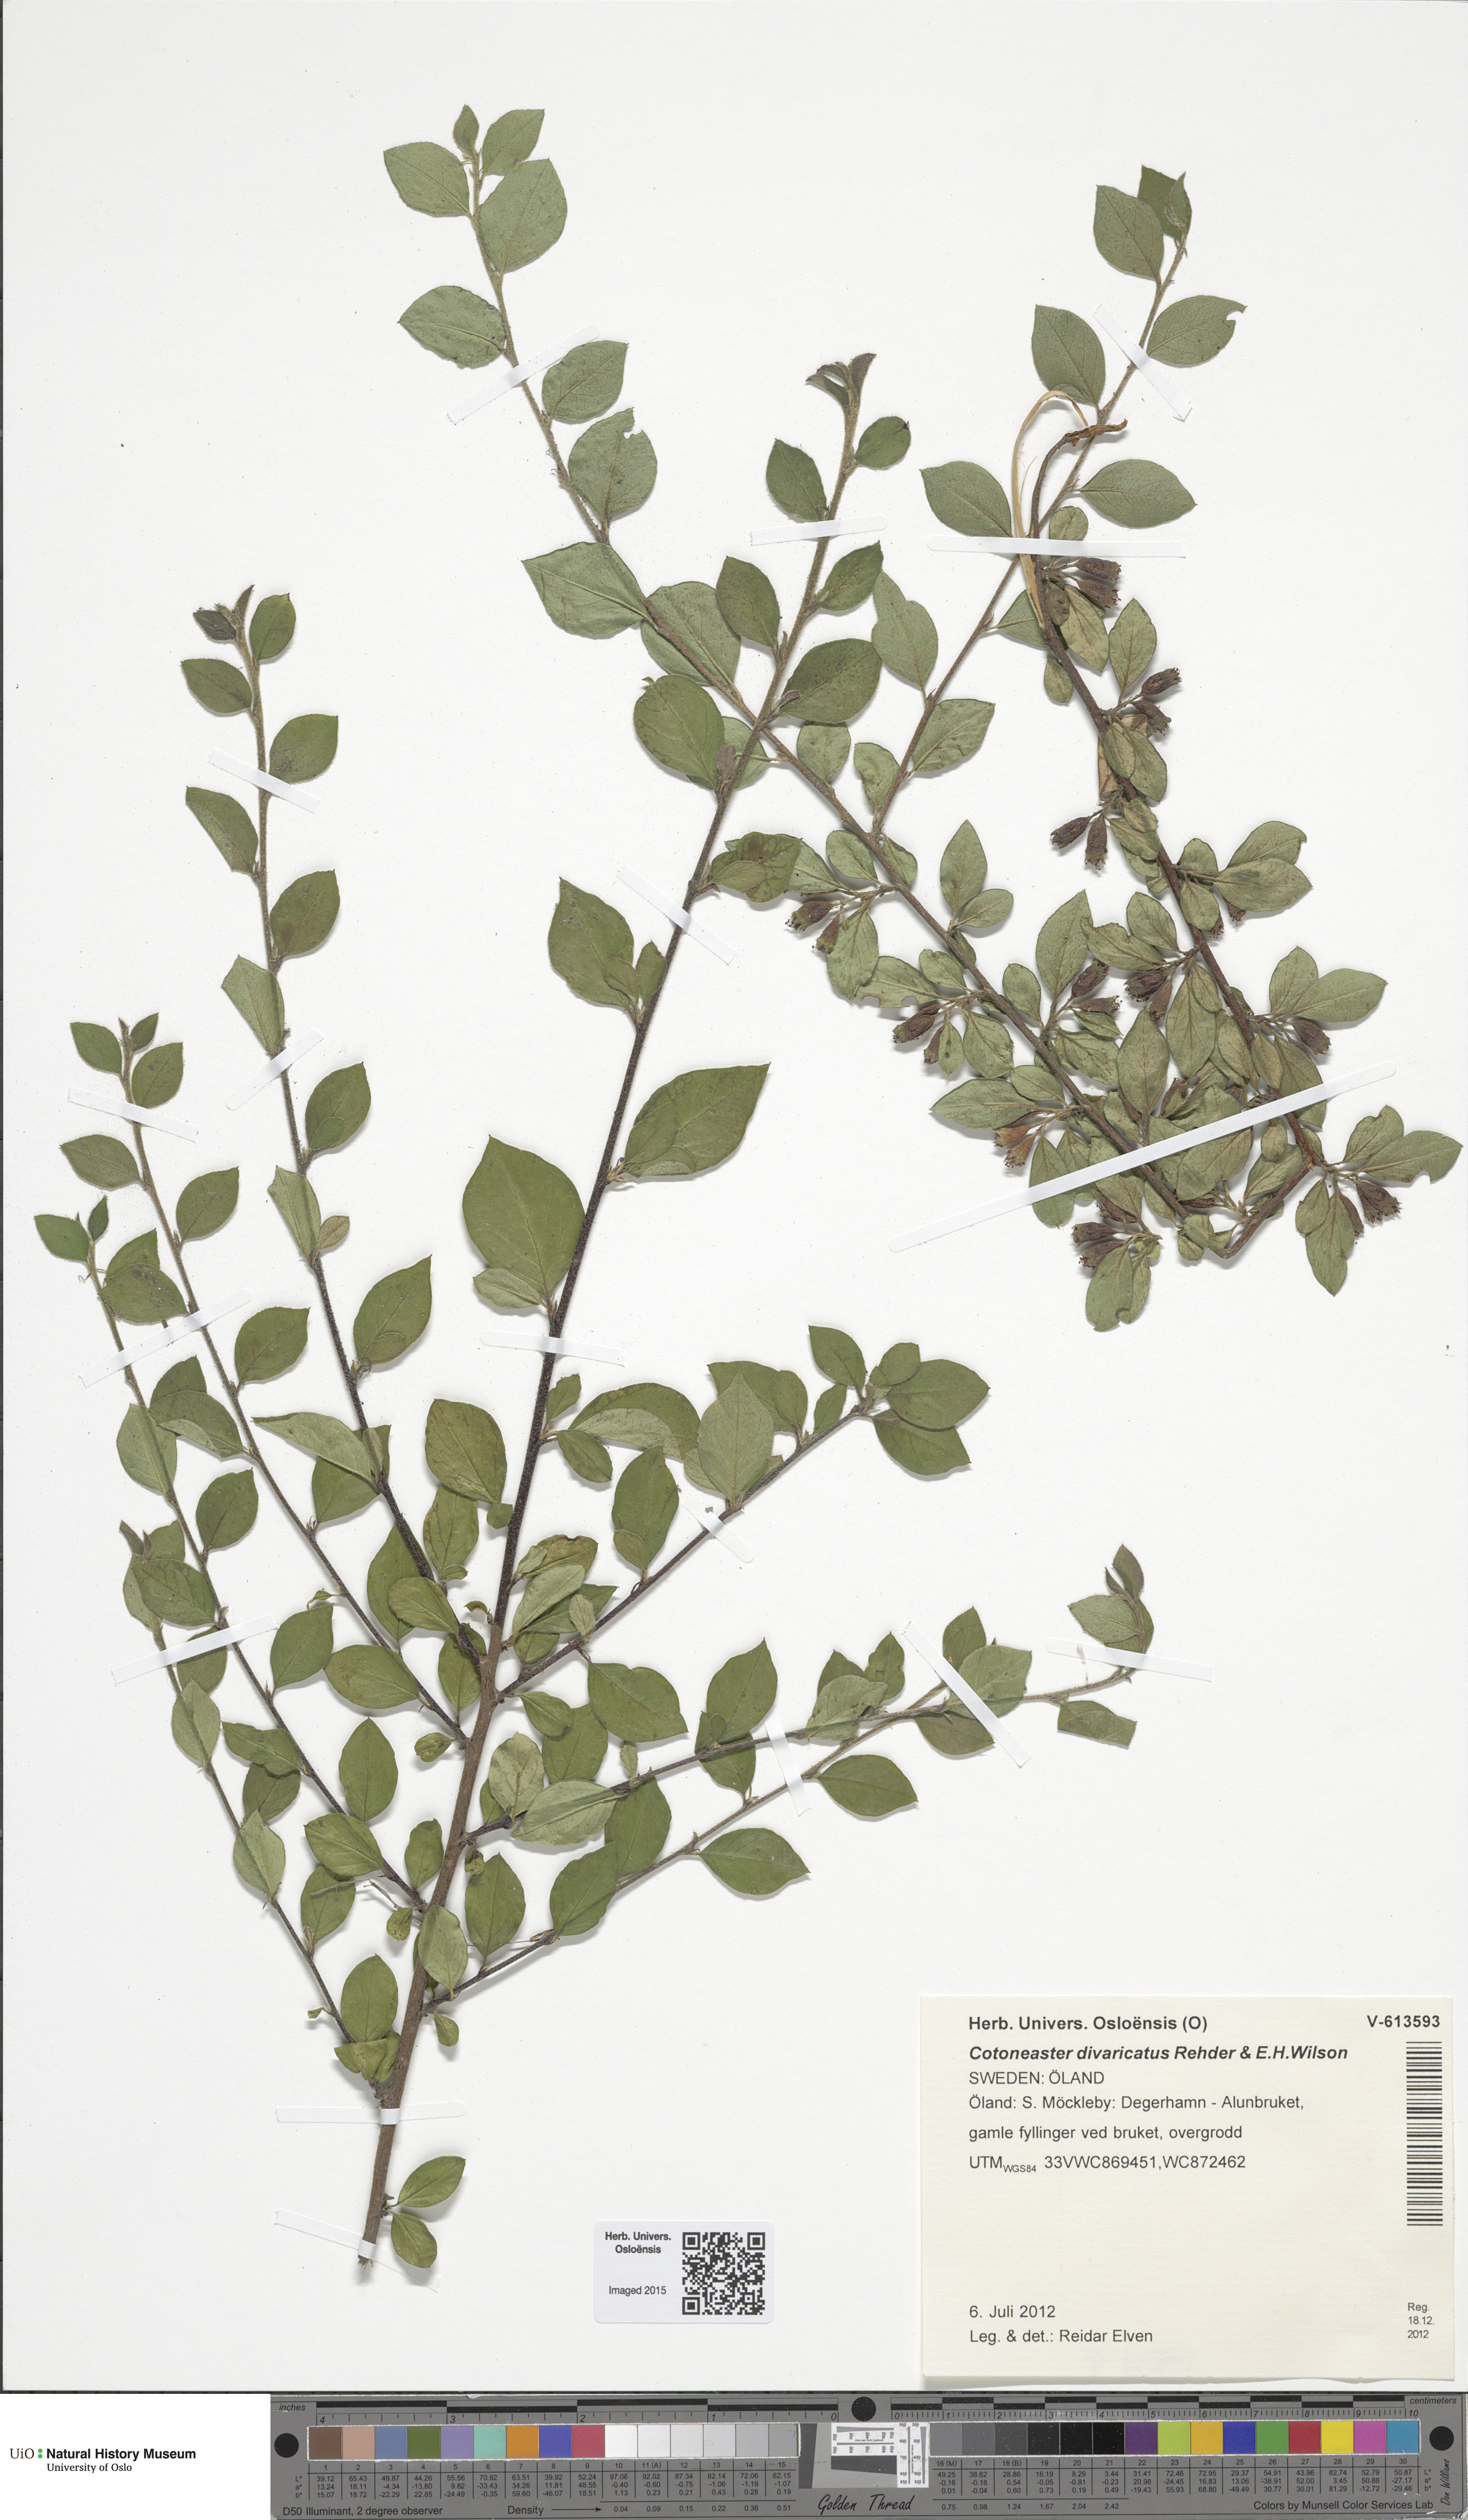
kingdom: Plantae
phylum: Tracheophyta
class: Magnoliopsida
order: Rosales
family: Rosaceae
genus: Cotoneaster
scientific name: Cotoneaster divaricatus
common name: Spreading cotoneaster
